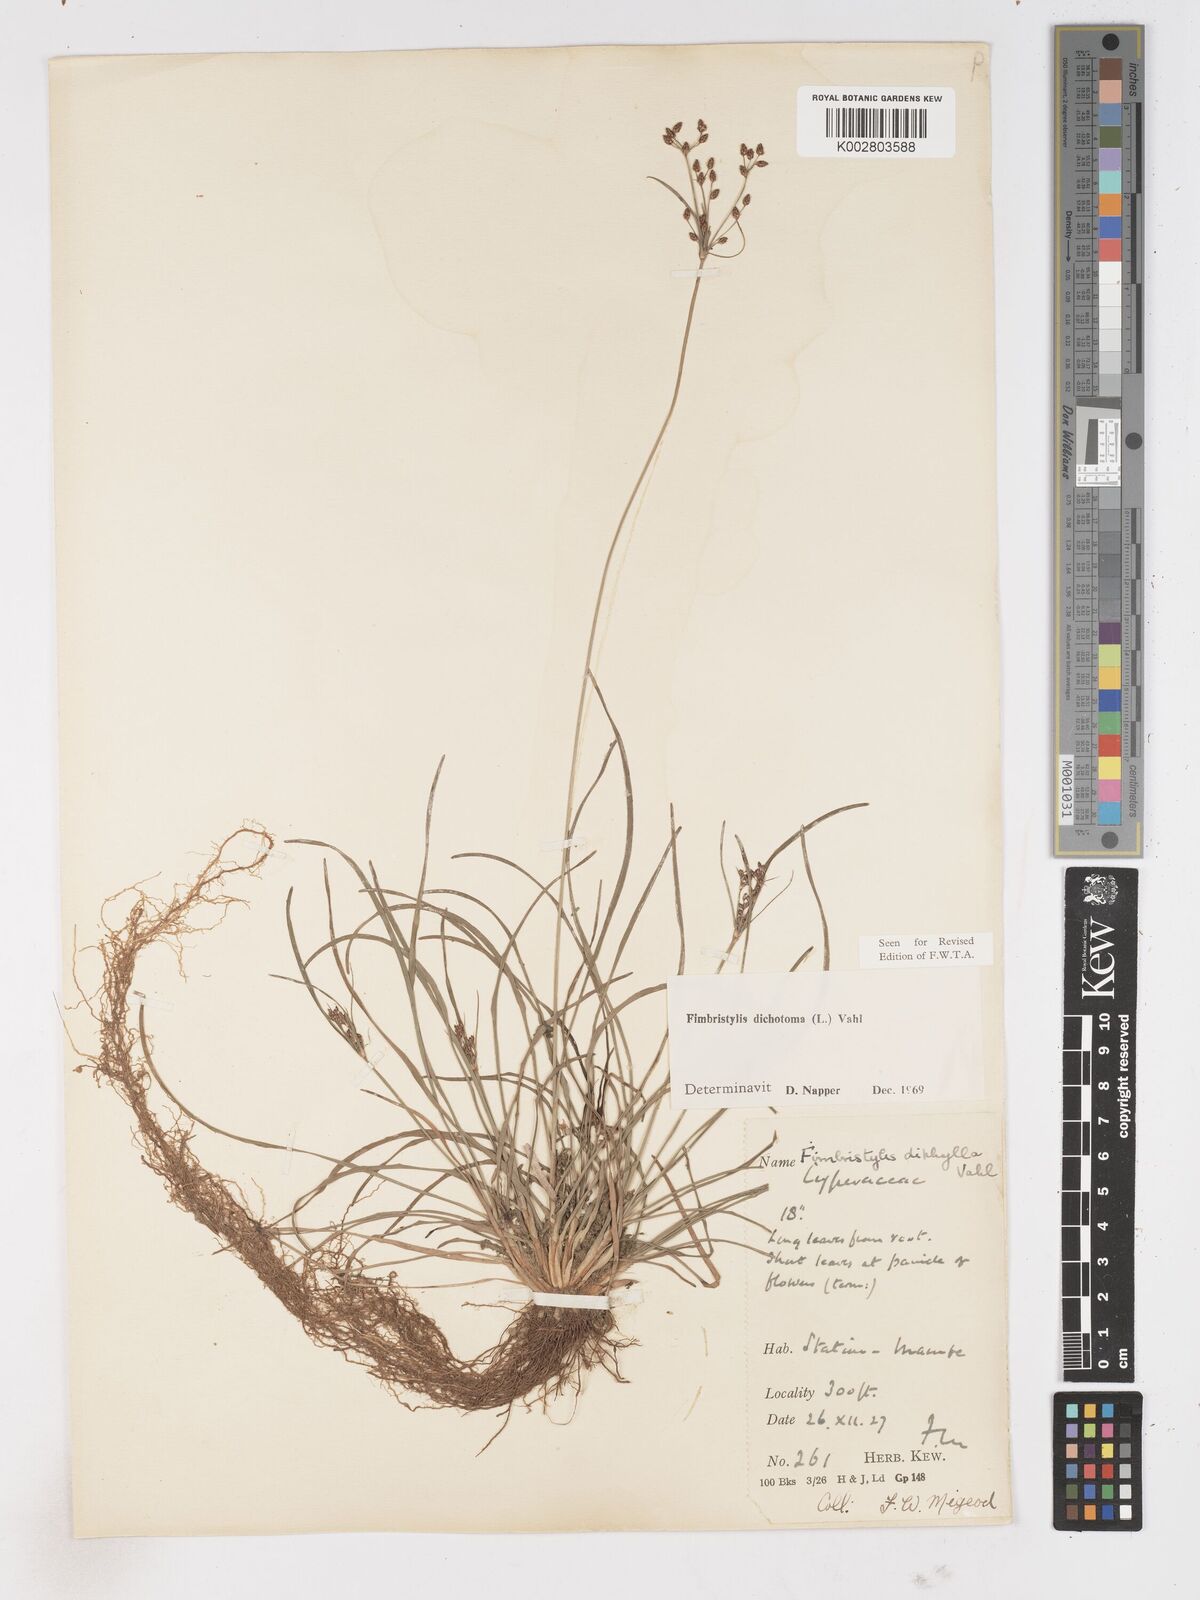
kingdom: Plantae
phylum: Tracheophyta
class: Liliopsida
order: Poales
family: Cyperaceae
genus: Fimbristylis
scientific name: Fimbristylis dichotoma
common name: Forked fimbry
